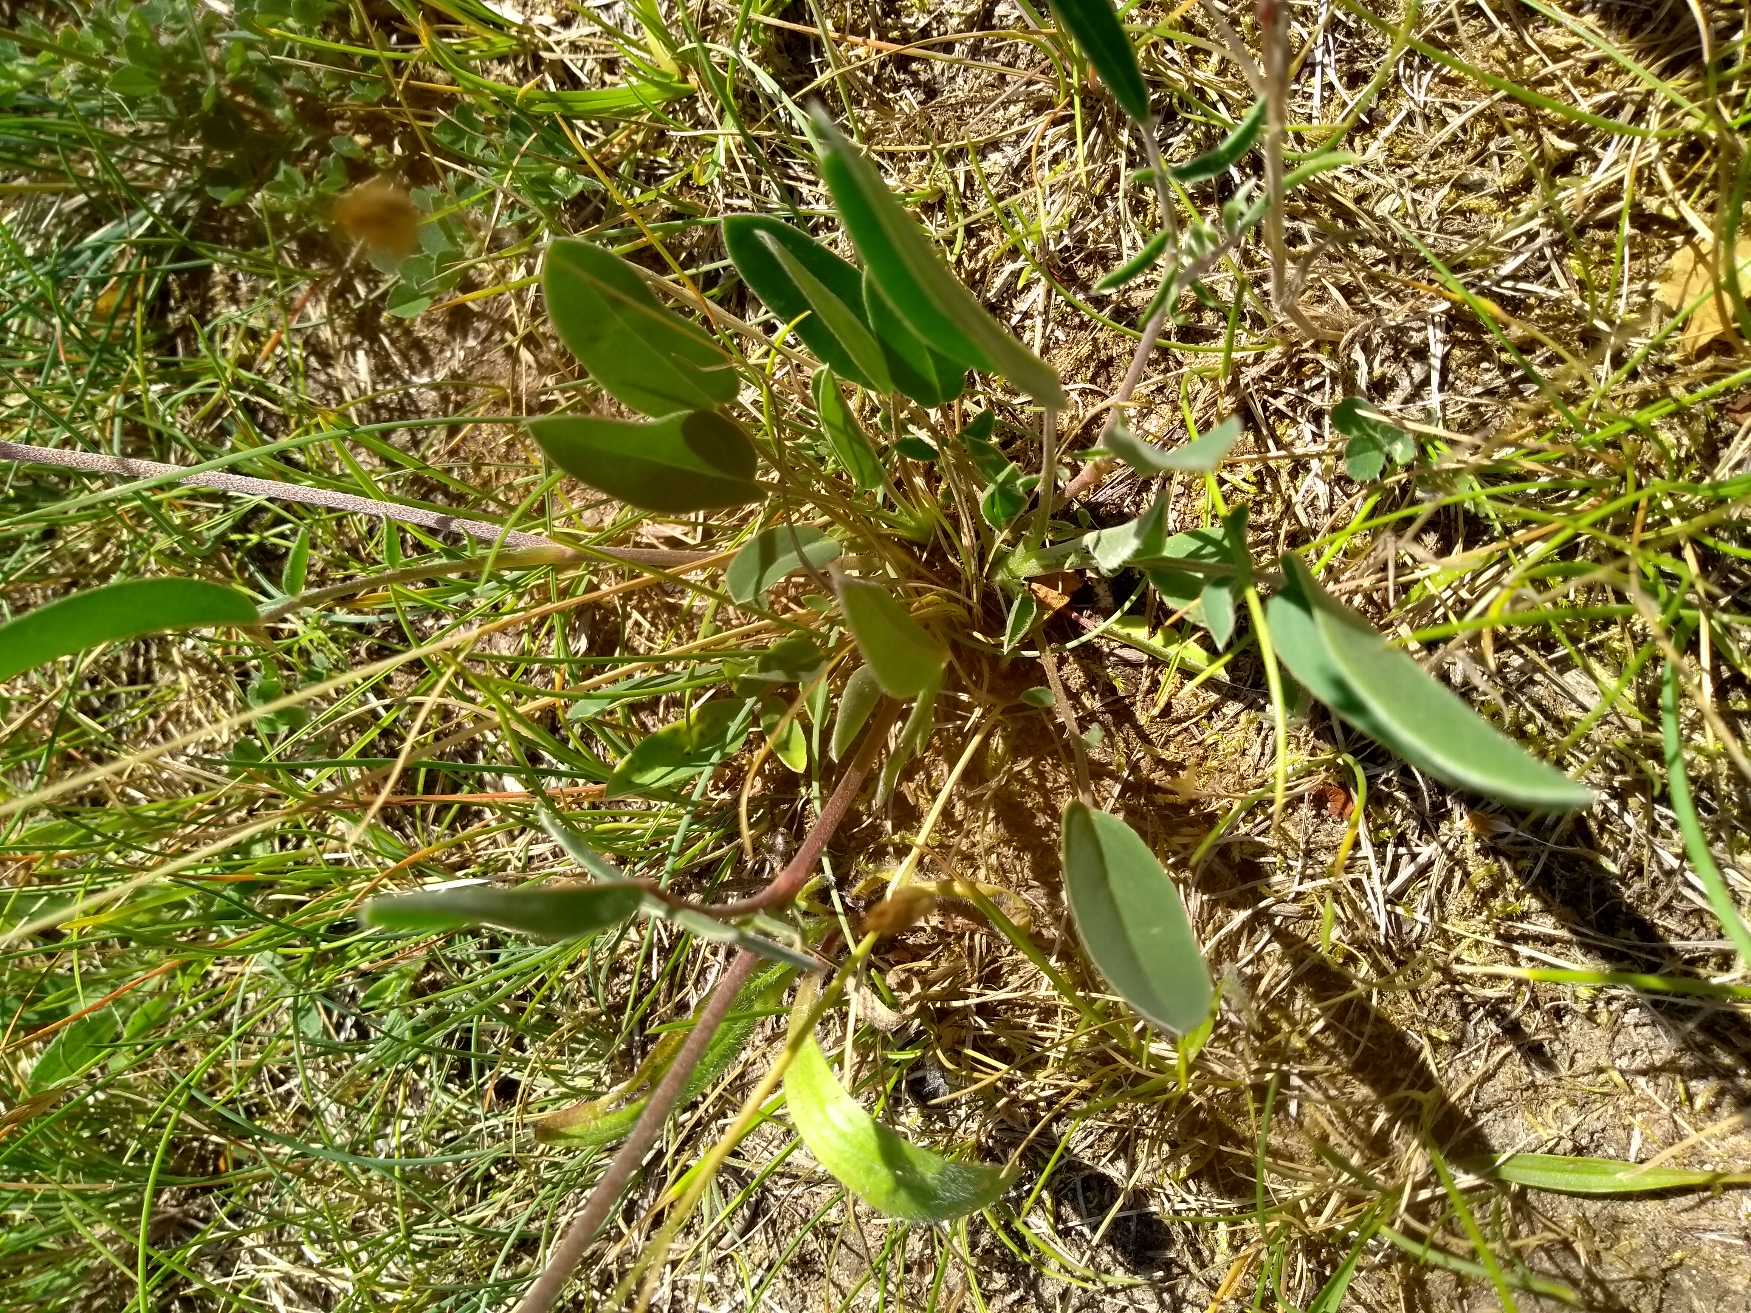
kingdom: Plantae
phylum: Tracheophyta
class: Magnoliopsida
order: Fabales
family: Fabaceae
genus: Anthyllis
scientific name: Anthyllis vulneraria
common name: Rundbælg
